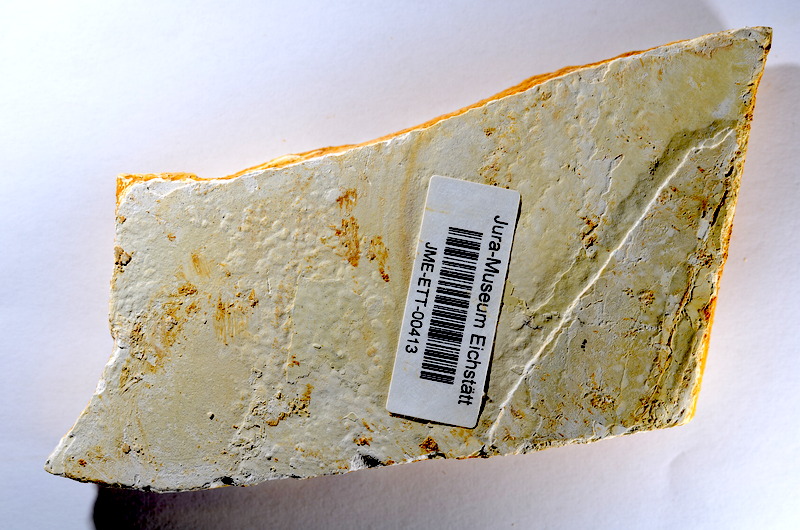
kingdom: Animalia
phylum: Chordata
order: Salmoniformes
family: Orthogonikleithridae
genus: Orthogonikleithrus
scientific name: Orthogonikleithrus hoelli
